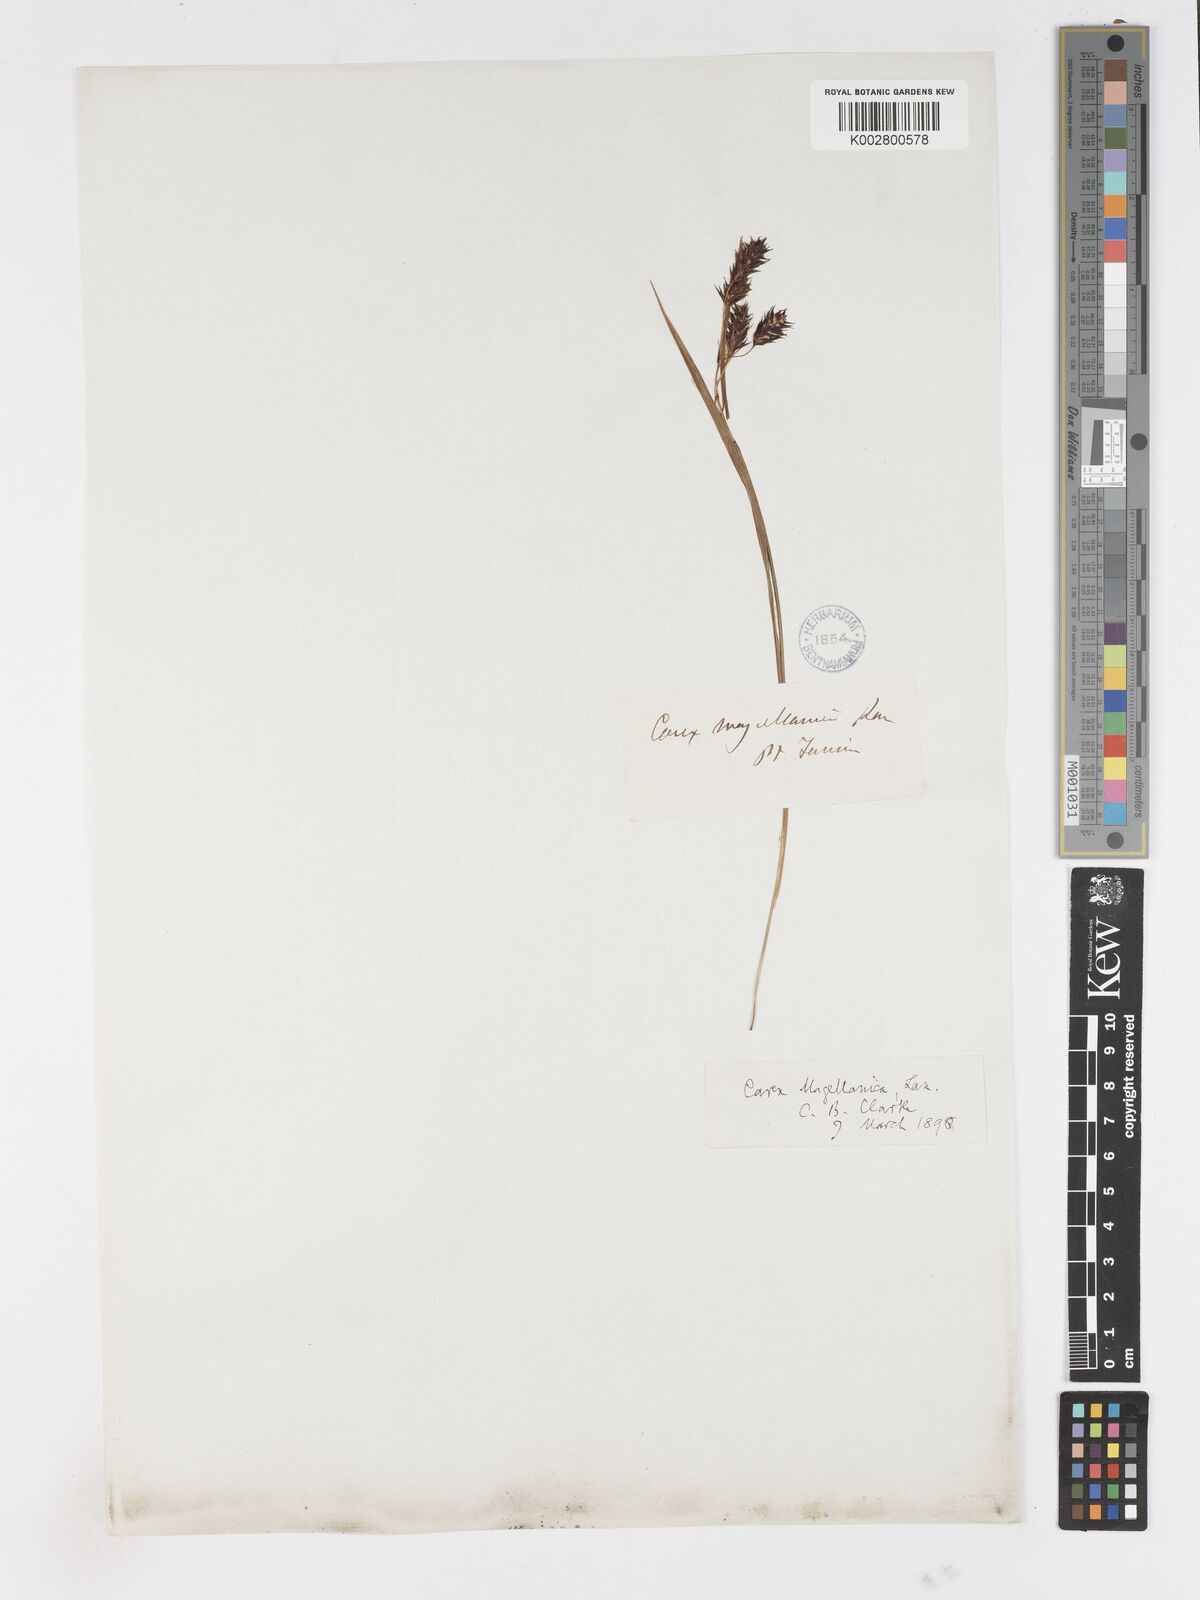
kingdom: Plantae
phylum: Tracheophyta
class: Liliopsida
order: Poales
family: Cyperaceae
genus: Carex
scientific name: Carex magellanica
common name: Bog sedge
